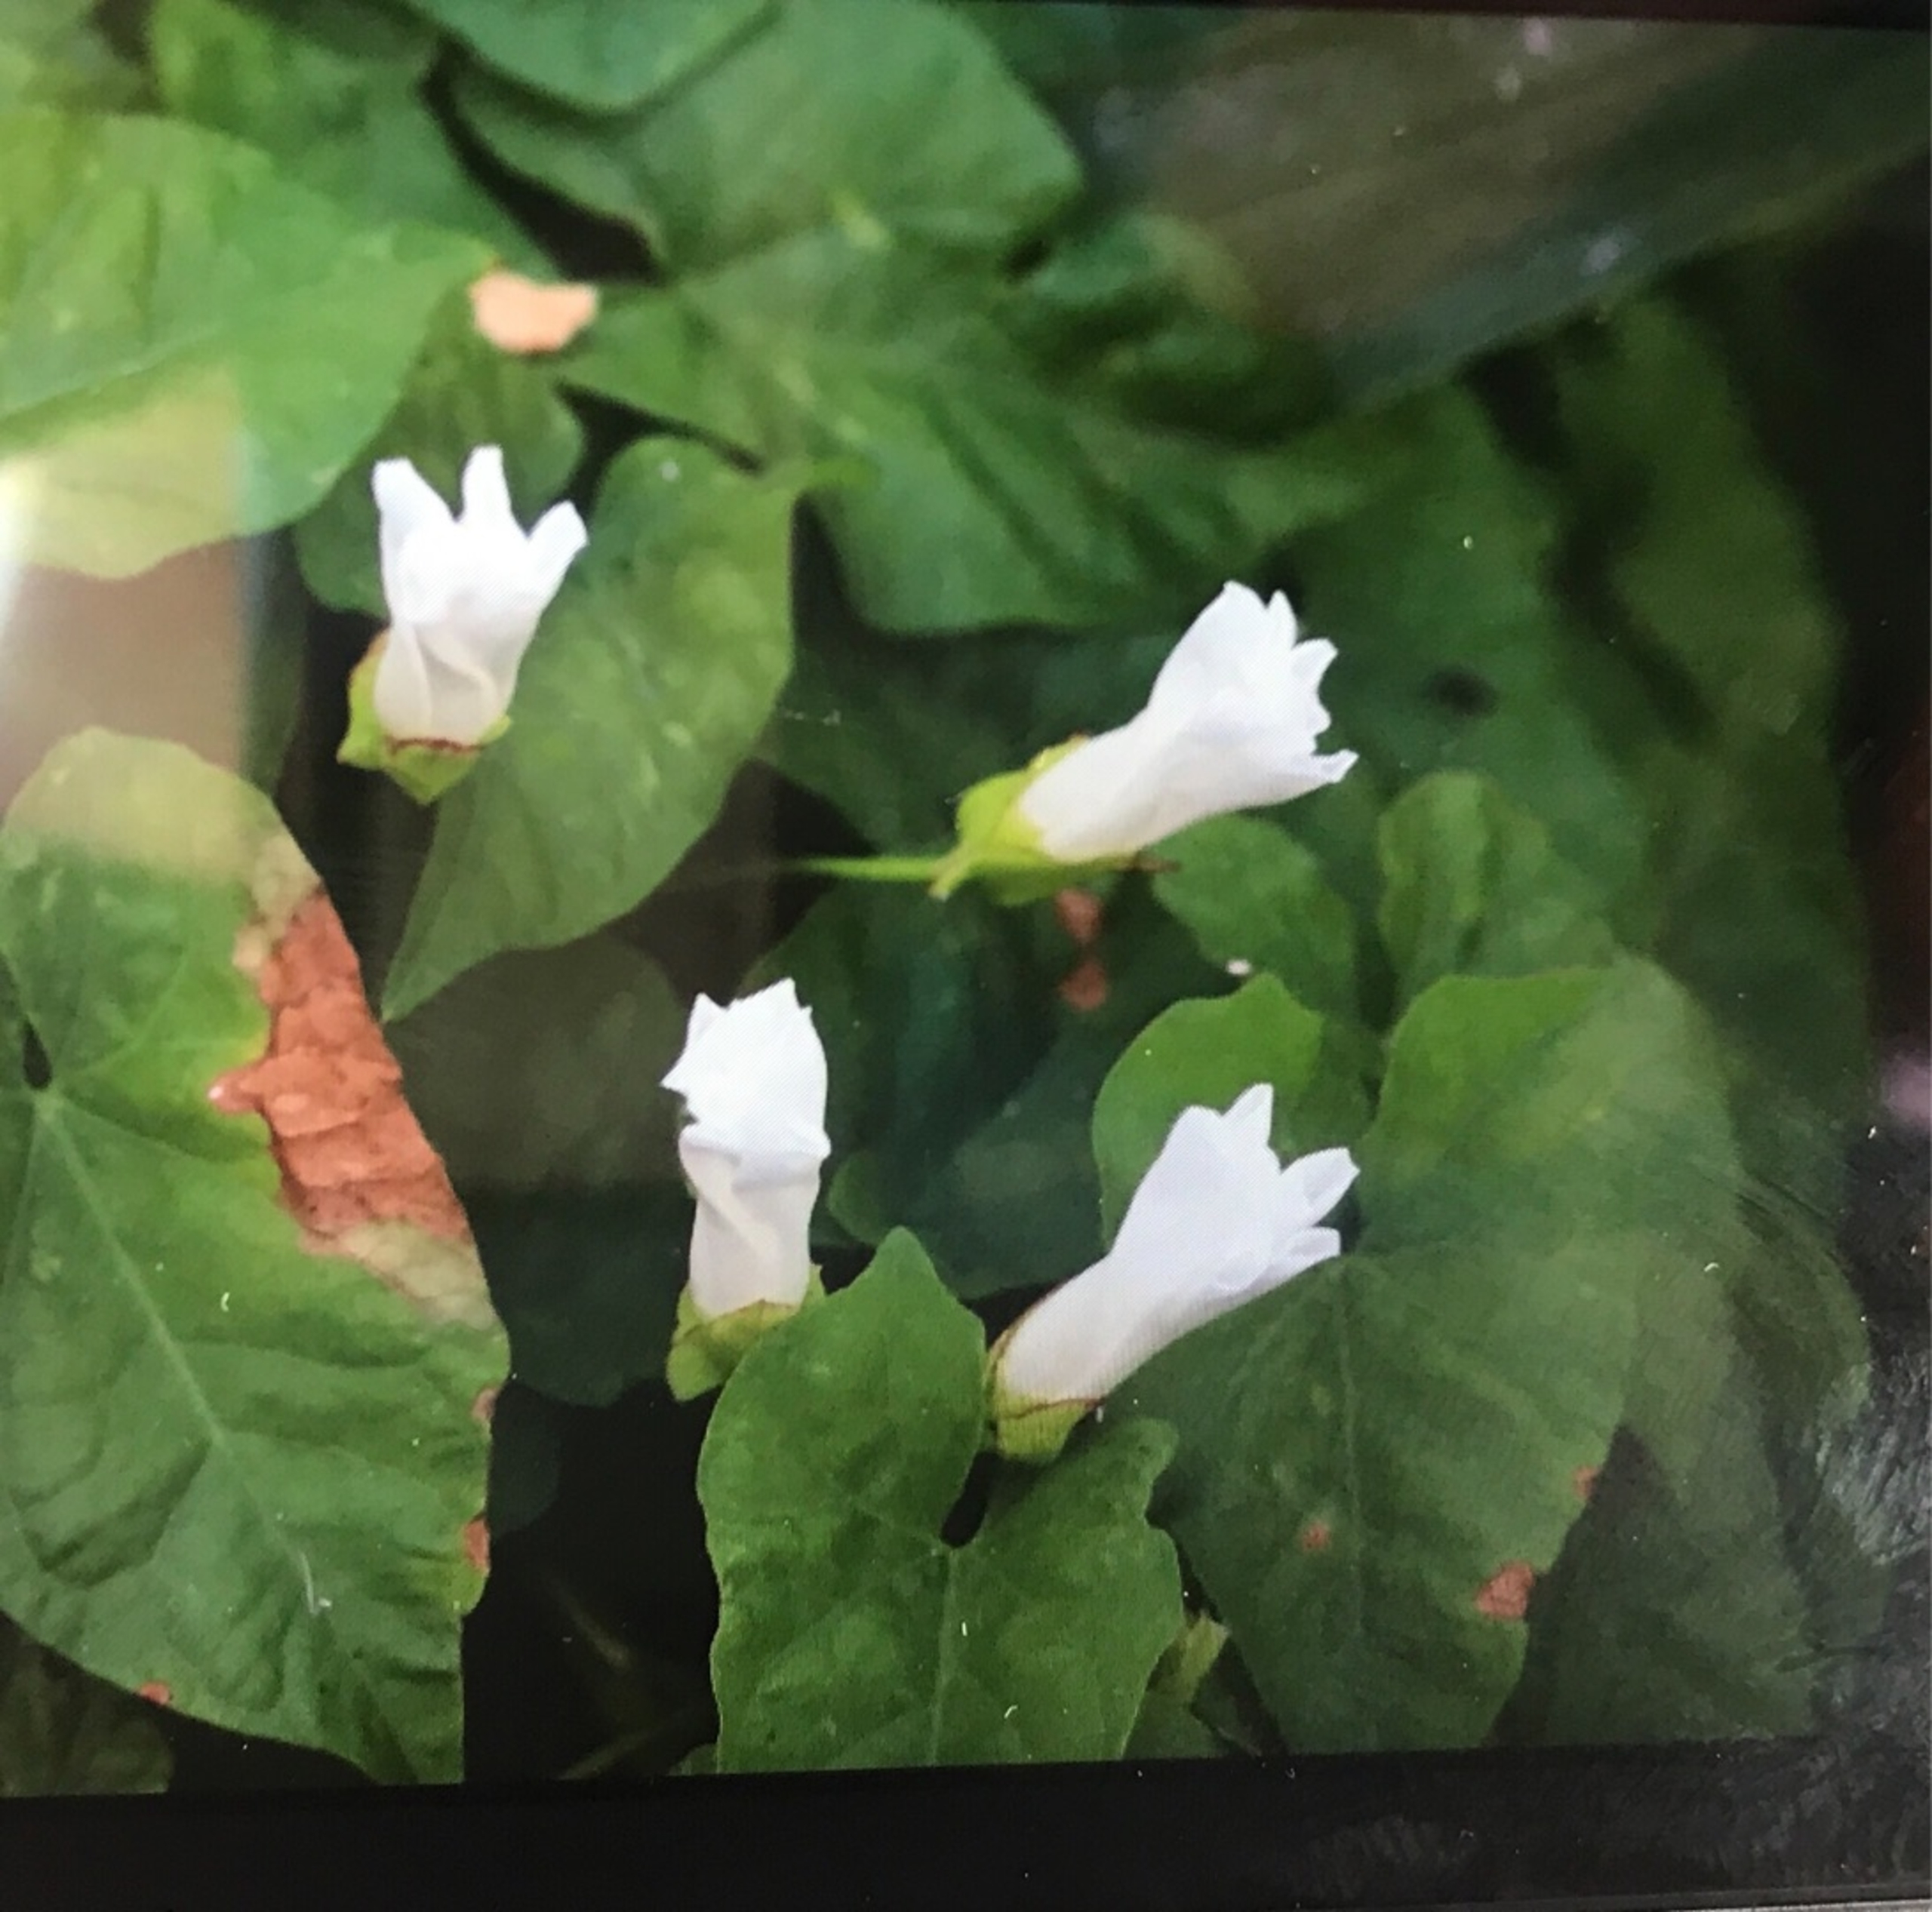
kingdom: Plantae
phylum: Tracheophyta
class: Magnoliopsida
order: Solanales
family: Convolvulaceae
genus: Calystegia
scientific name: Calystegia sepium
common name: Gærde-snerle
